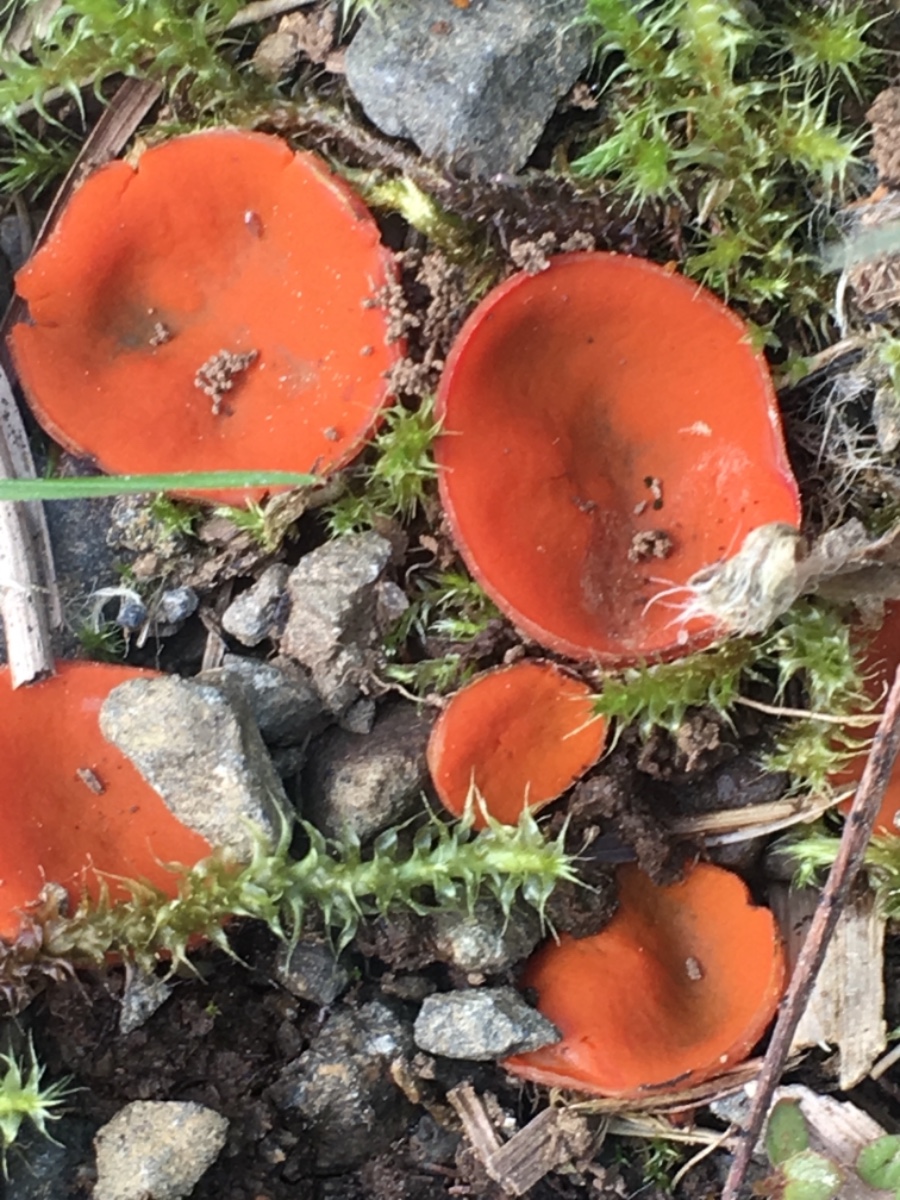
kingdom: Fungi
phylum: Ascomycota
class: Pezizomycetes
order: Pezizales
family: Pyronemataceae
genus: Melastiza
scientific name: Melastiza
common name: rødbæger
